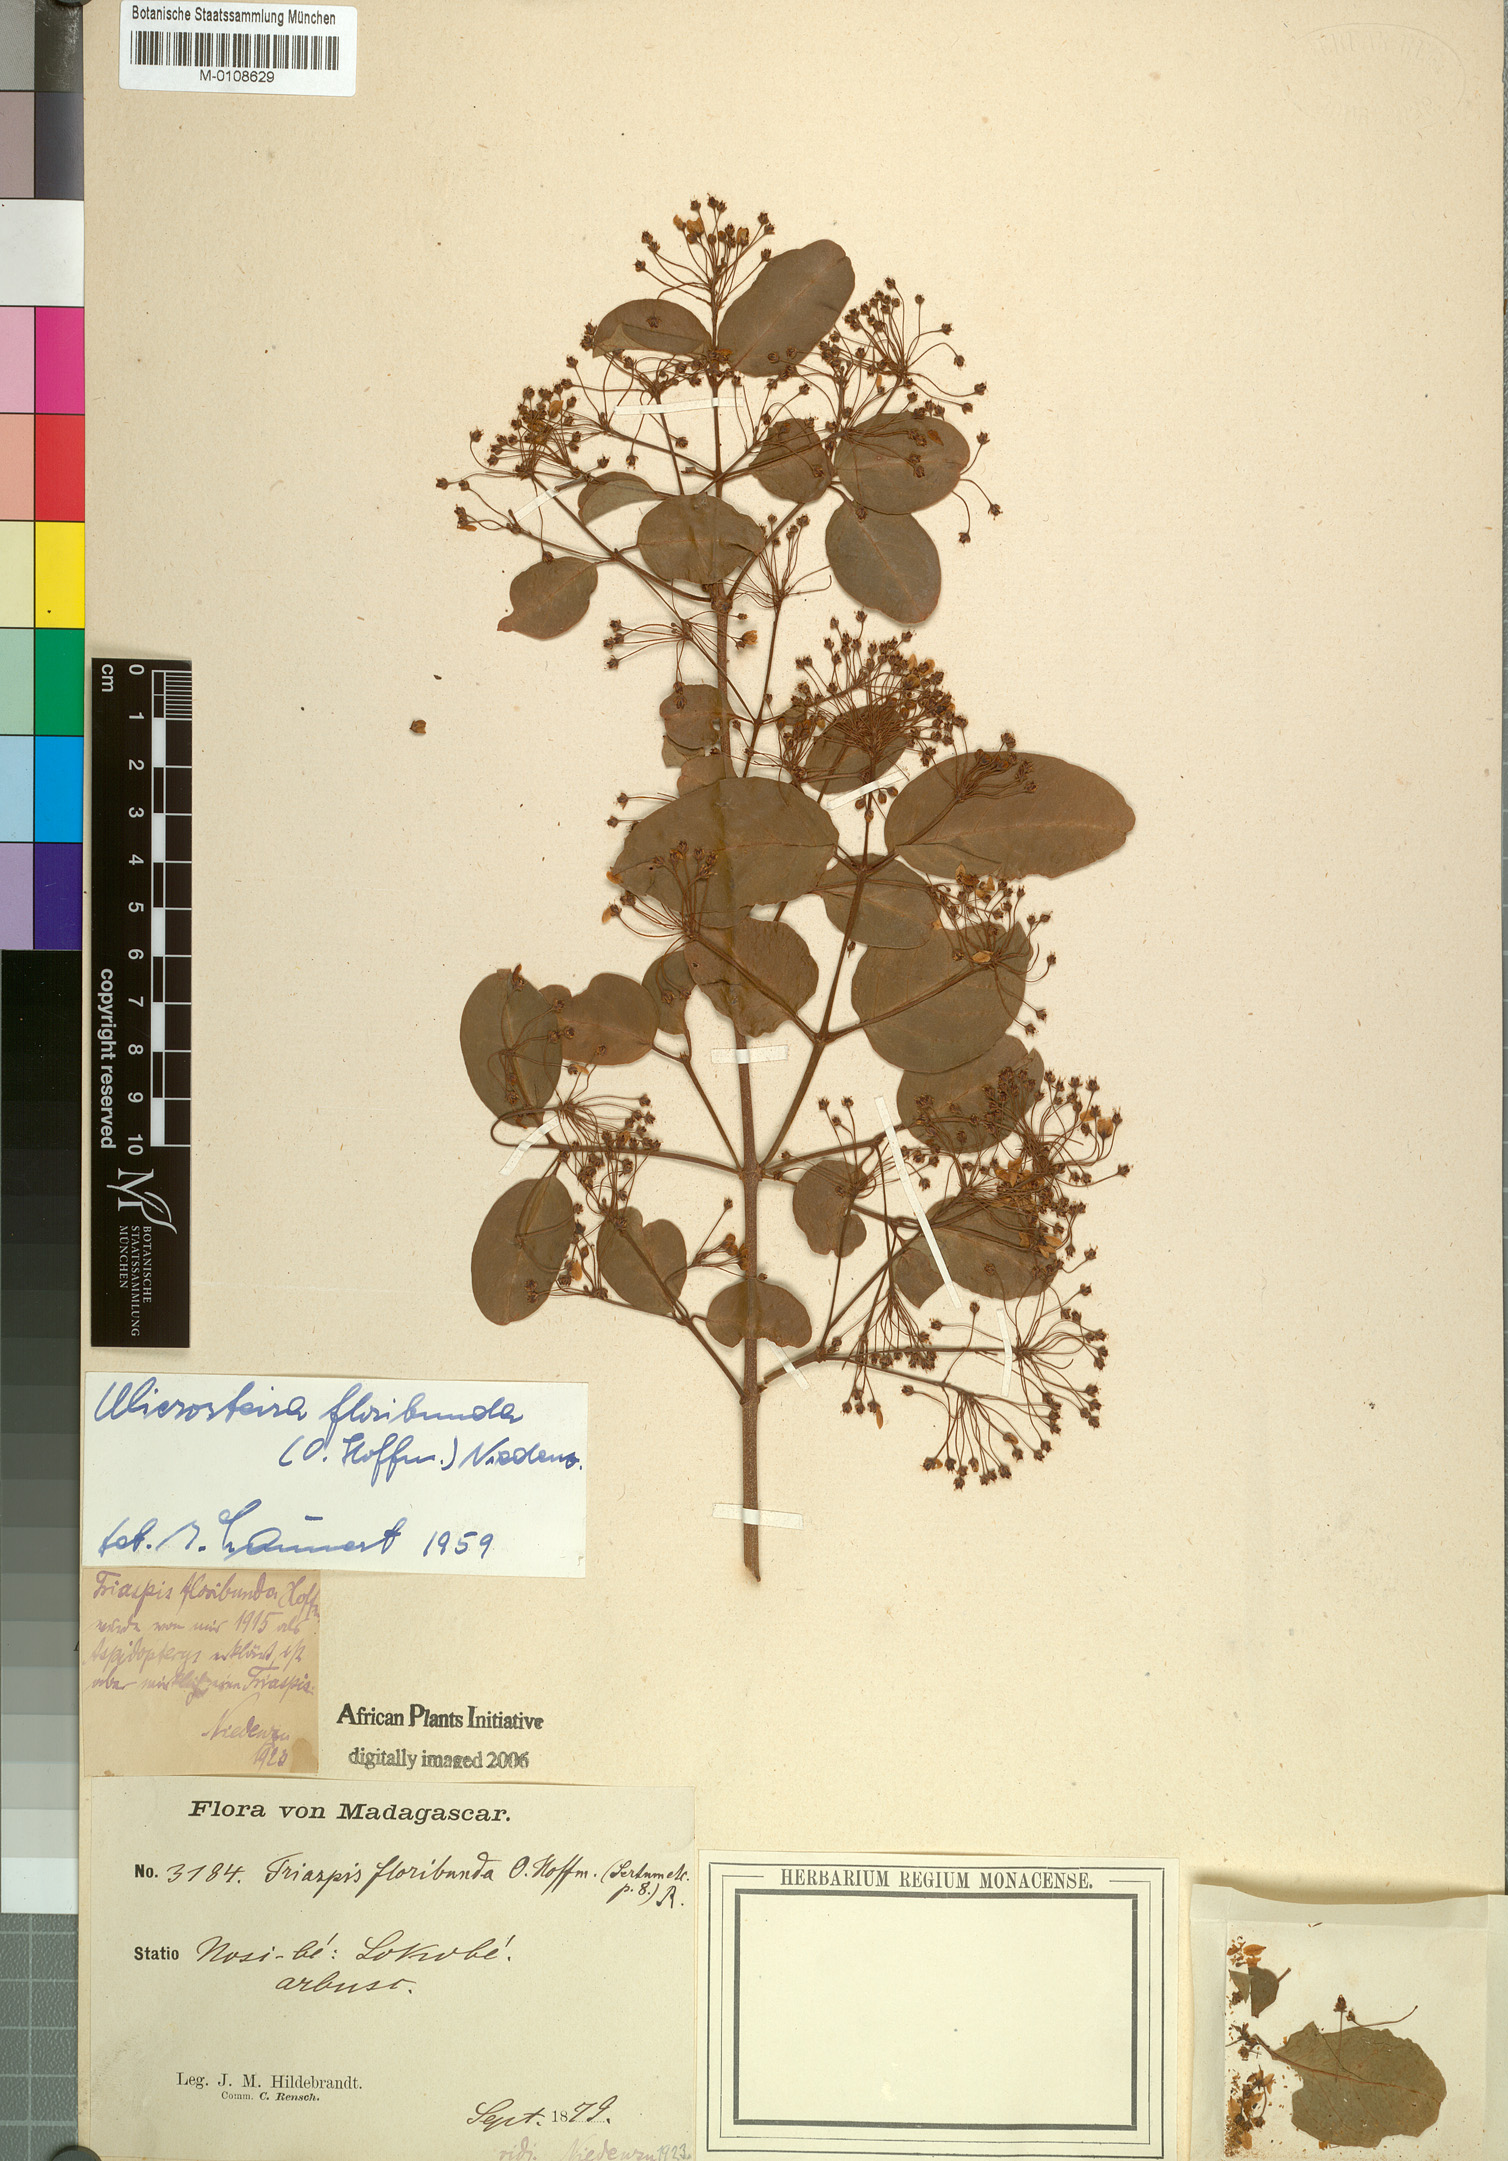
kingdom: Plantae
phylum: Tracheophyta
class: Magnoliopsida
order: Malpighiales
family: Malpighiaceae
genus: Microsteira
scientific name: Microsteira floribunda
